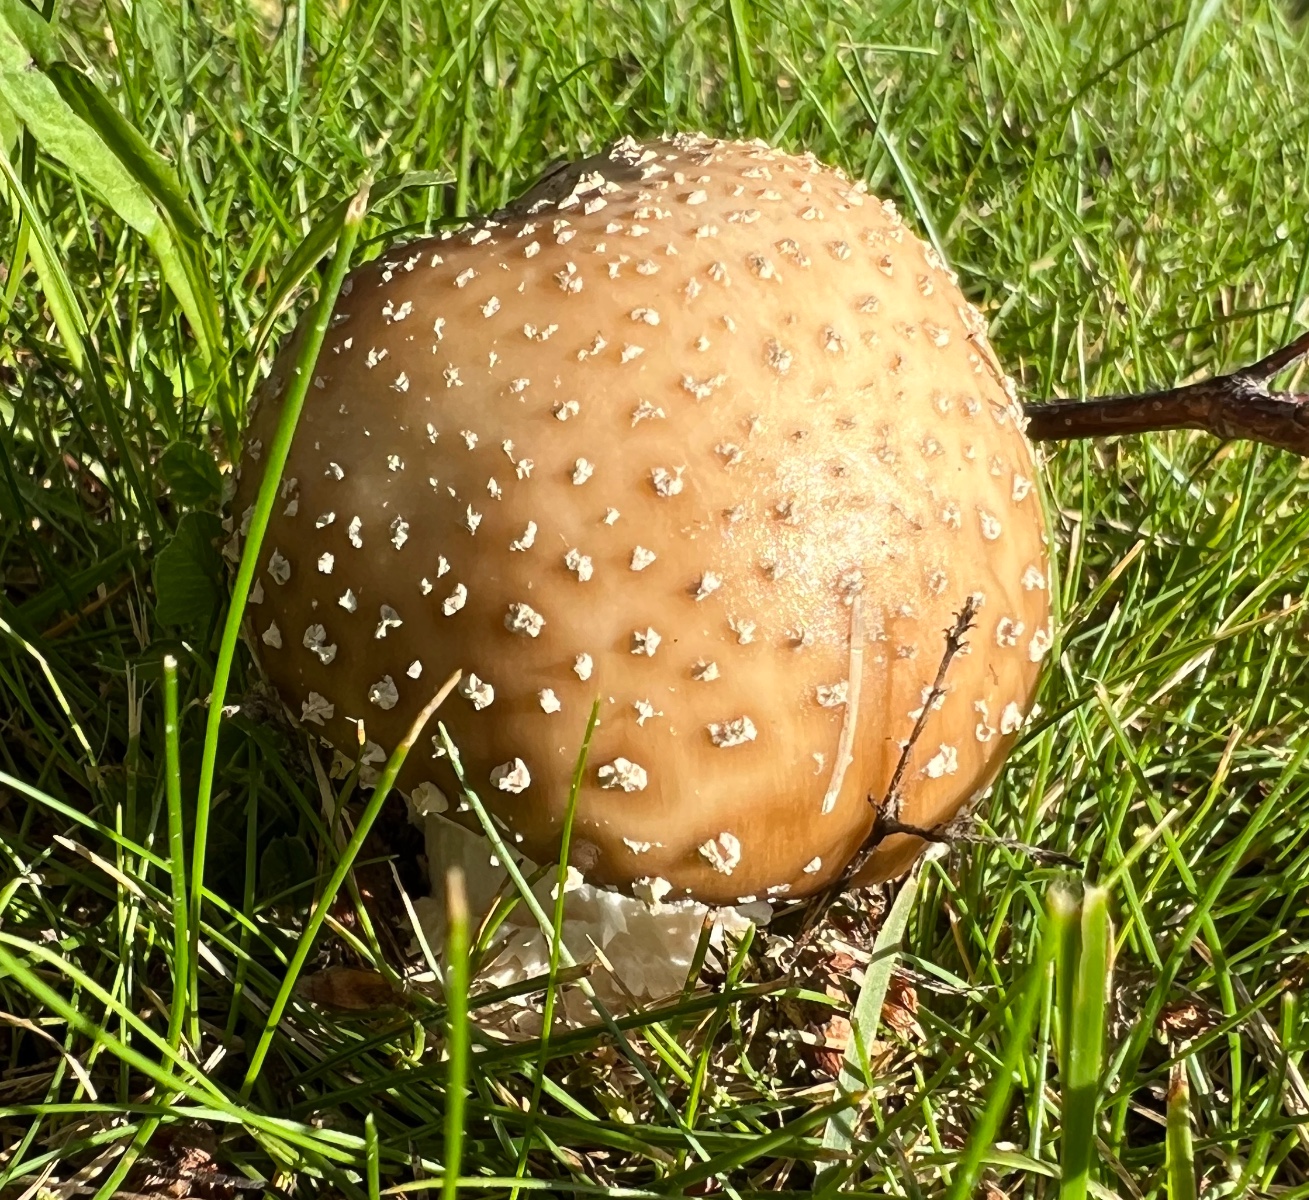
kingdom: Fungi
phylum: Basidiomycota
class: Agaricomycetes
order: Agaricales
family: Amanitaceae
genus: Amanita
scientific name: Amanita pantherina
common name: panter-fluesvamp
